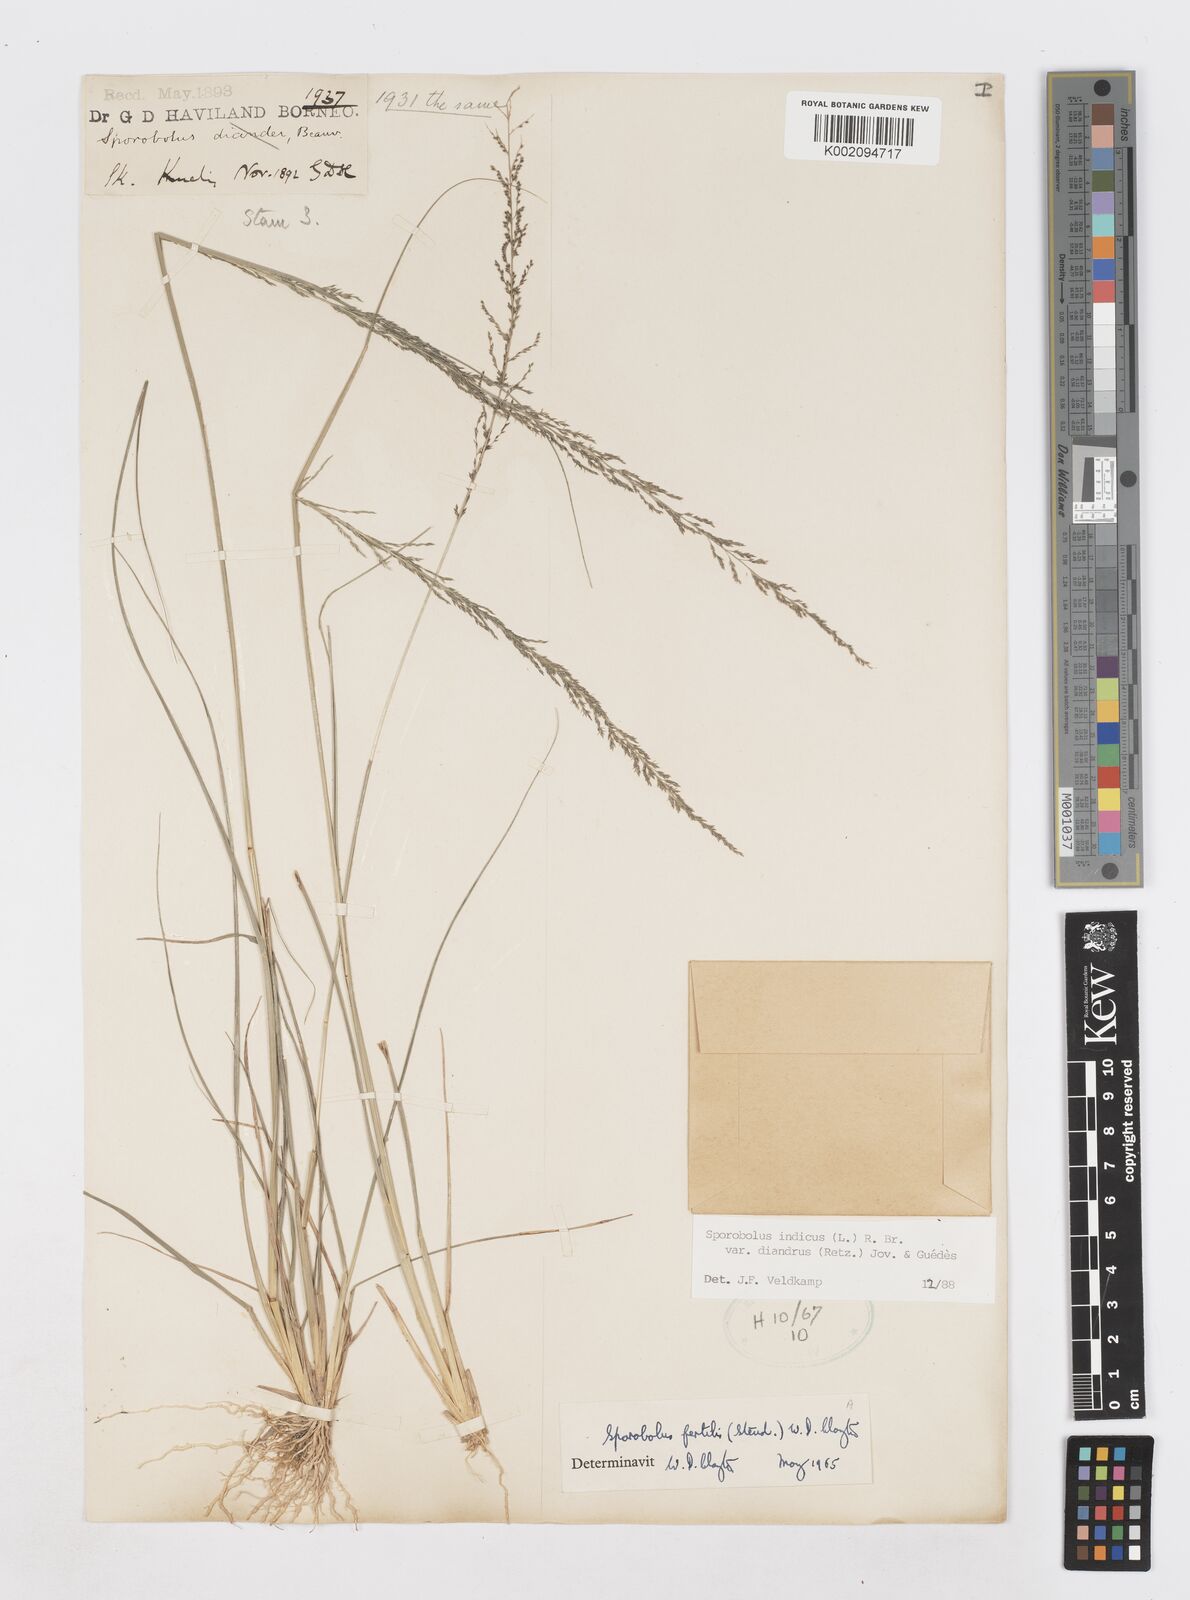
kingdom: Plantae
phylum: Tracheophyta
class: Liliopsida
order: Poales
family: Poaceae
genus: Sporobolus
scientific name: Sporobolus diandrus
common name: Tussock dropseed
